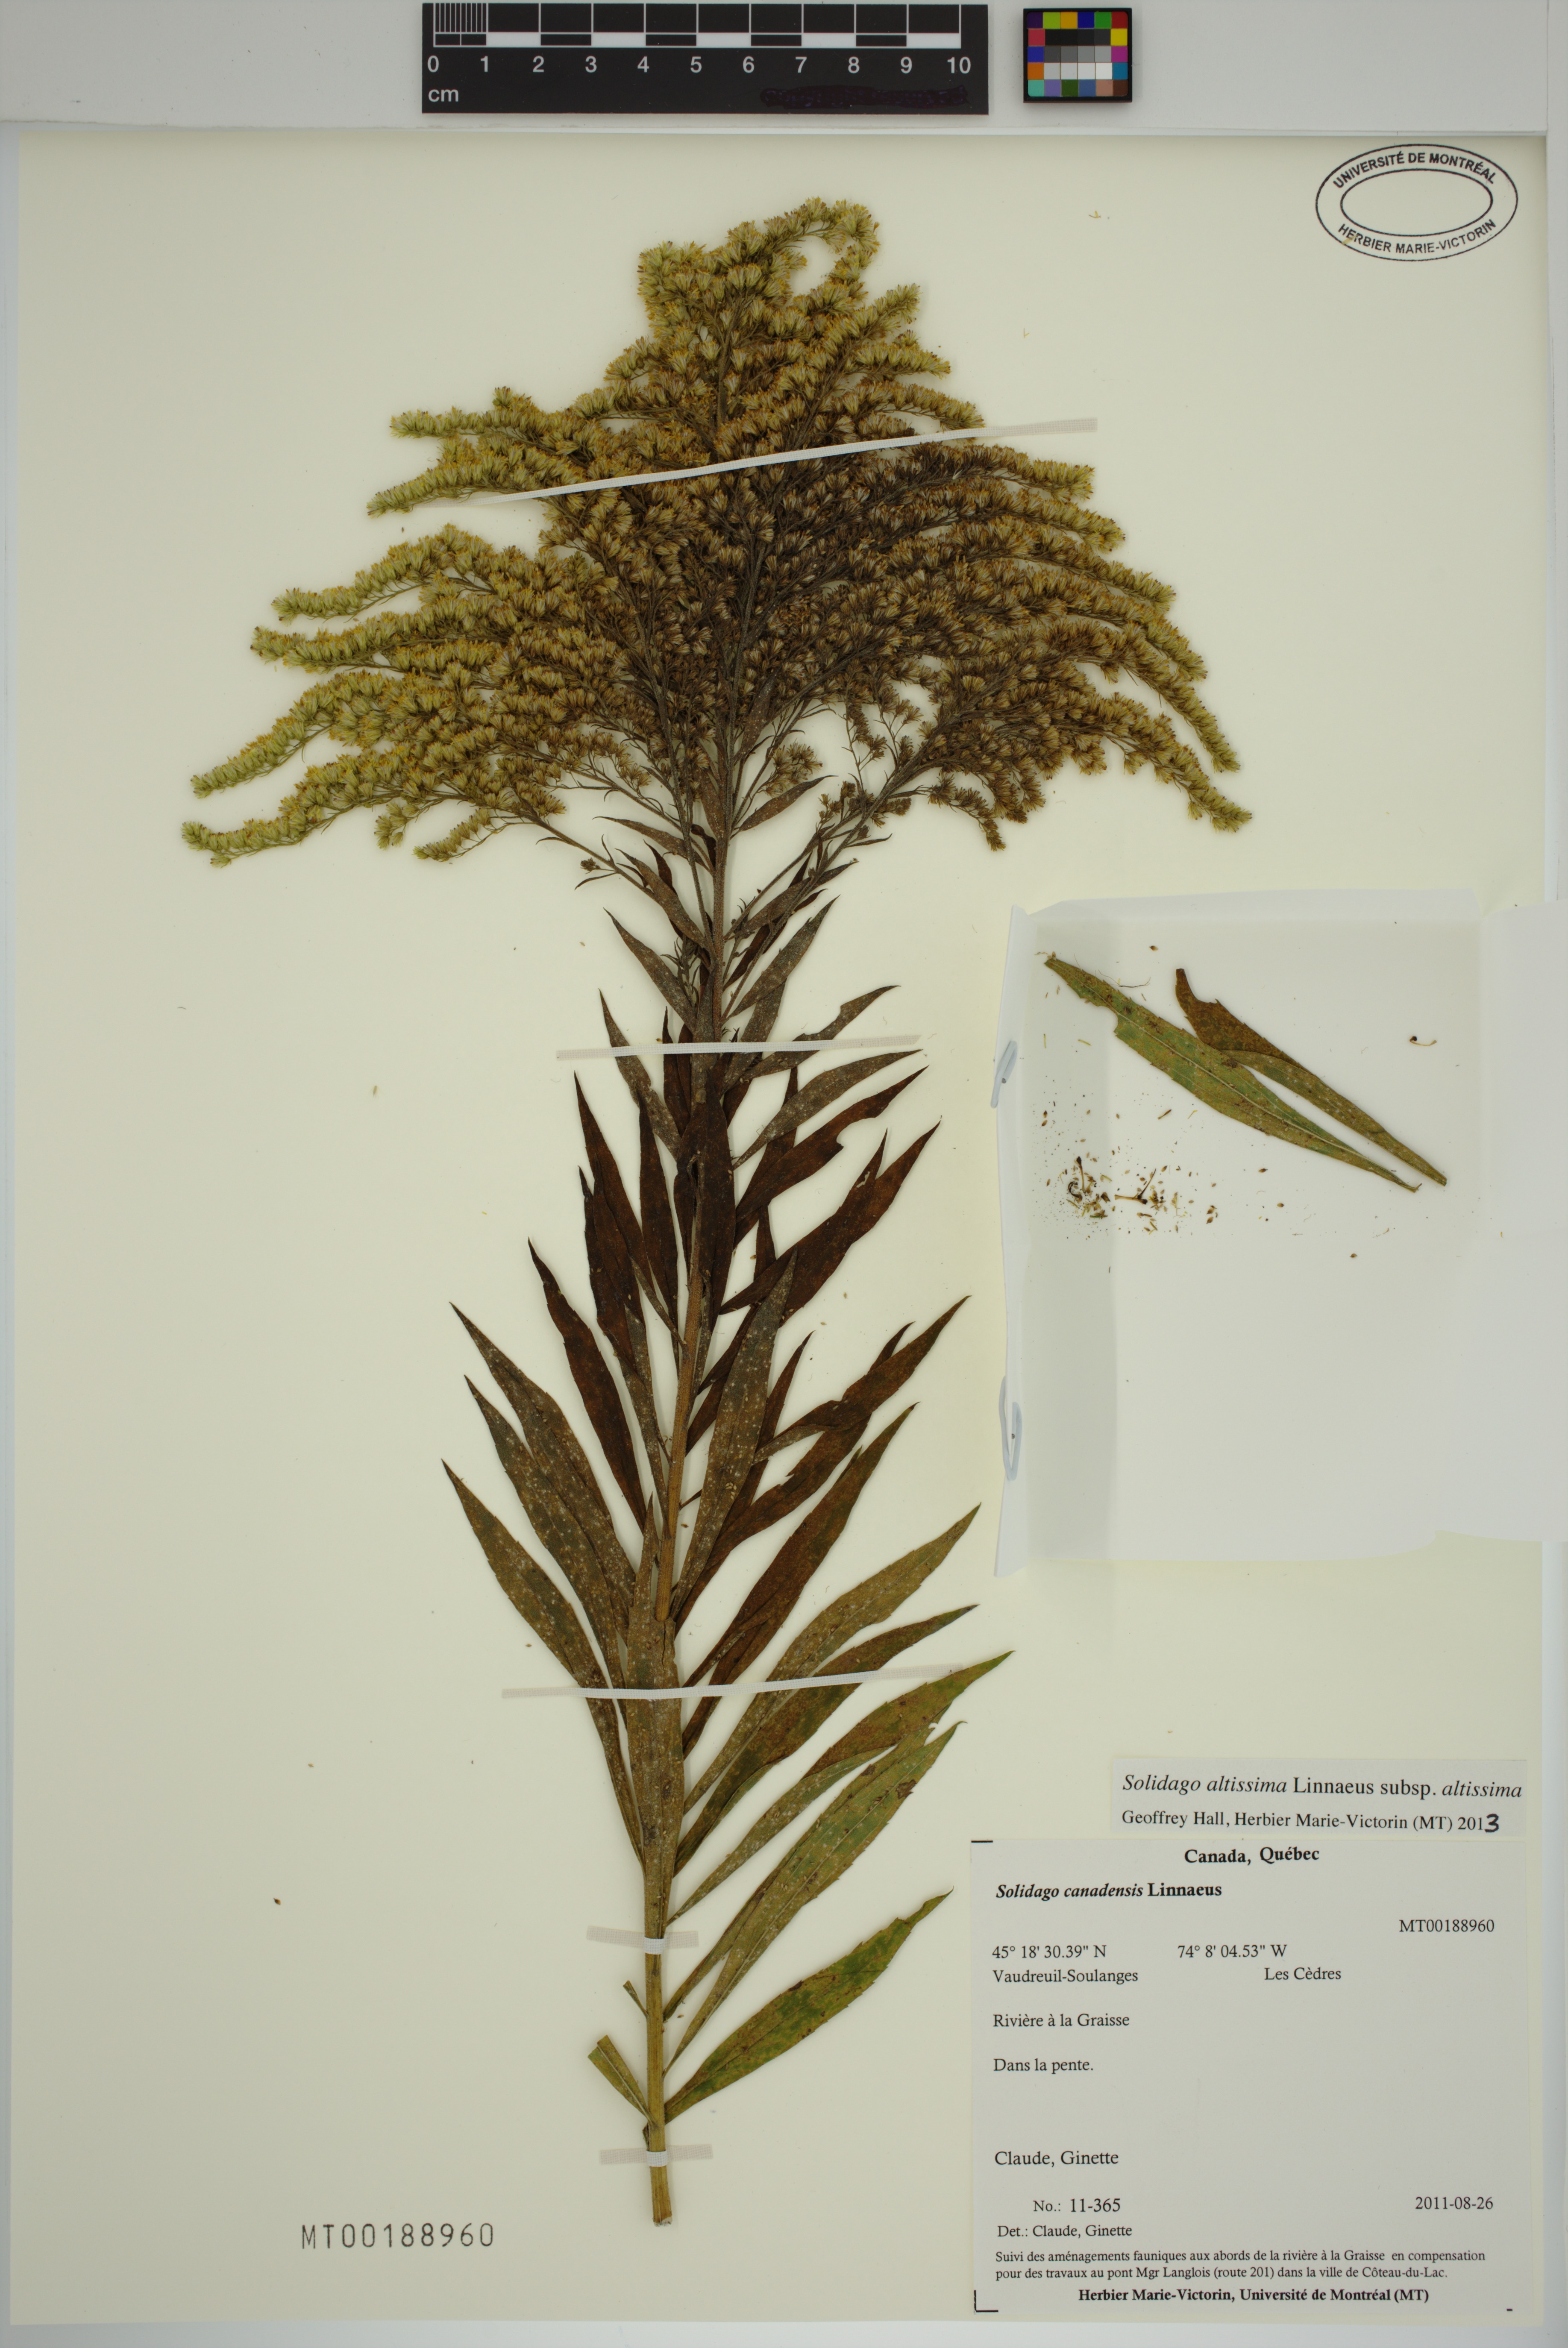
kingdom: Plantae
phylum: Tracheophyta
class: Magnoliopsida
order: Asterales
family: Asteraceae
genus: Solidago
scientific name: Solidago altissima
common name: Late goldenrod
